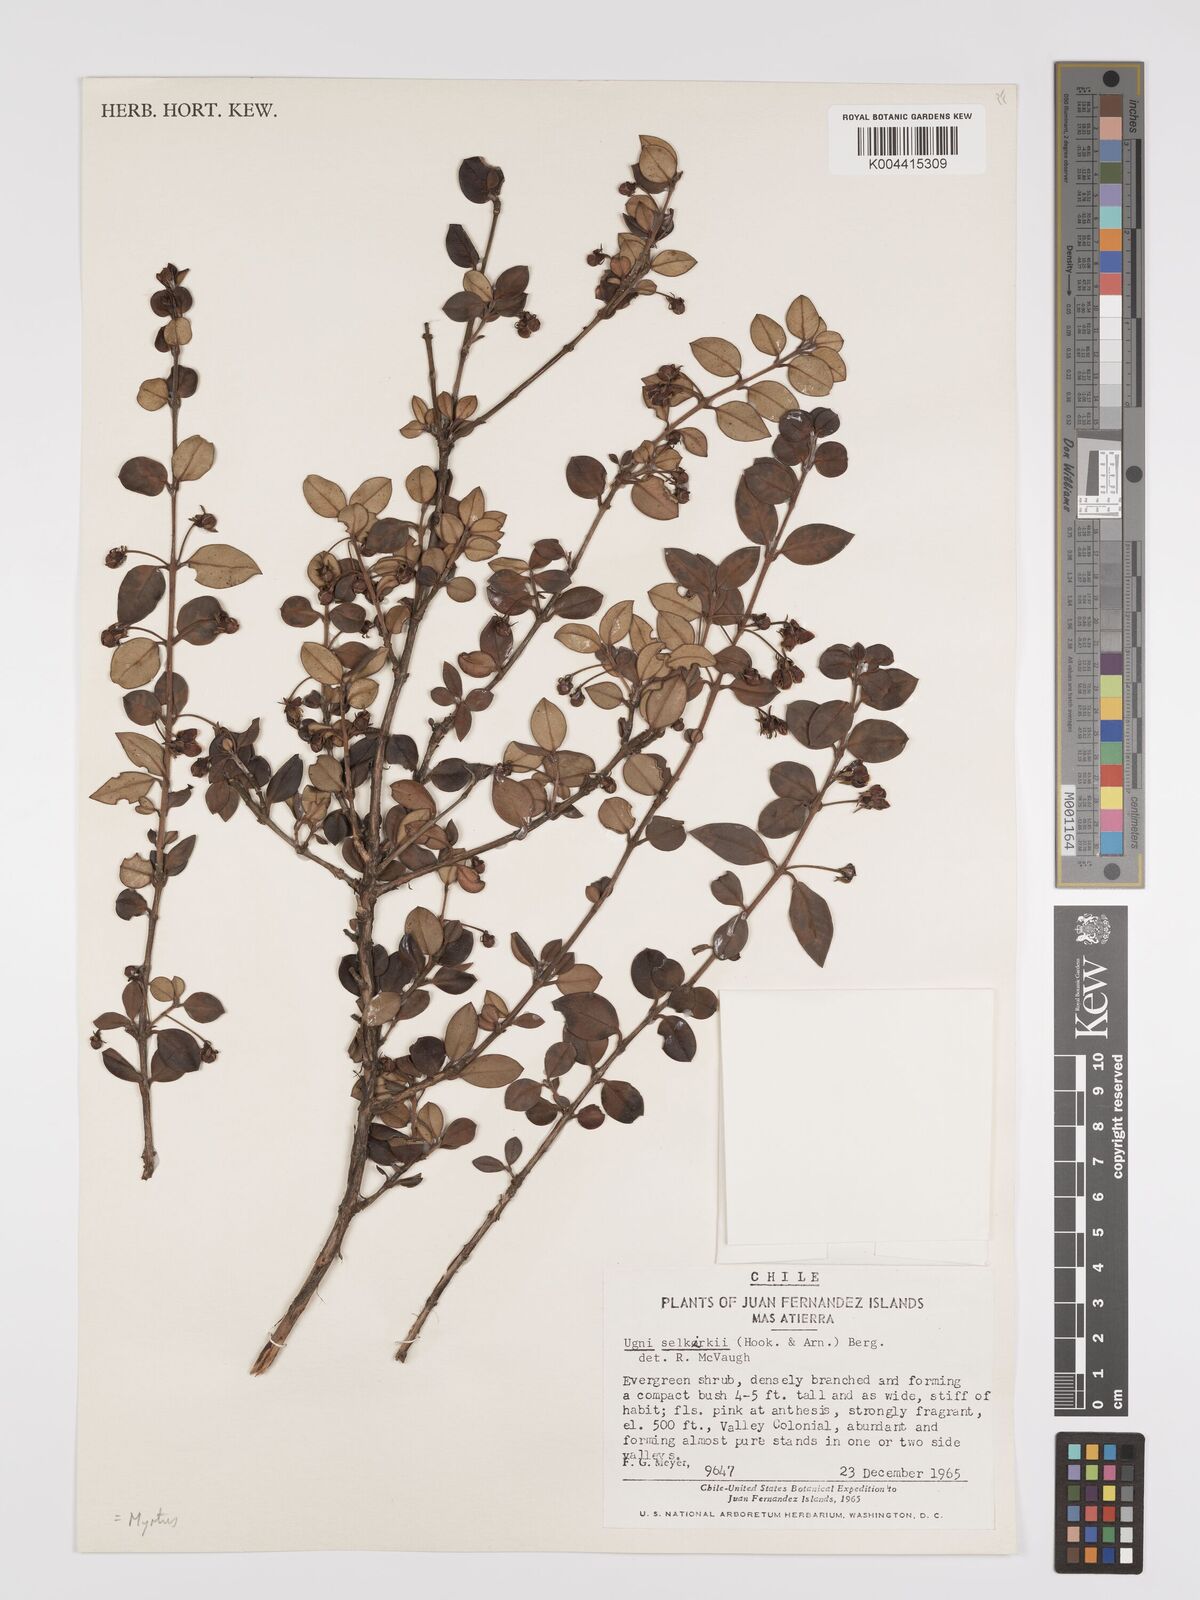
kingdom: Plantae
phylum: Tracheophyta
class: Magnoliopsida
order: Myrtales
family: Myrtaceae
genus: Ugni
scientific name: Ugni selkirkii
